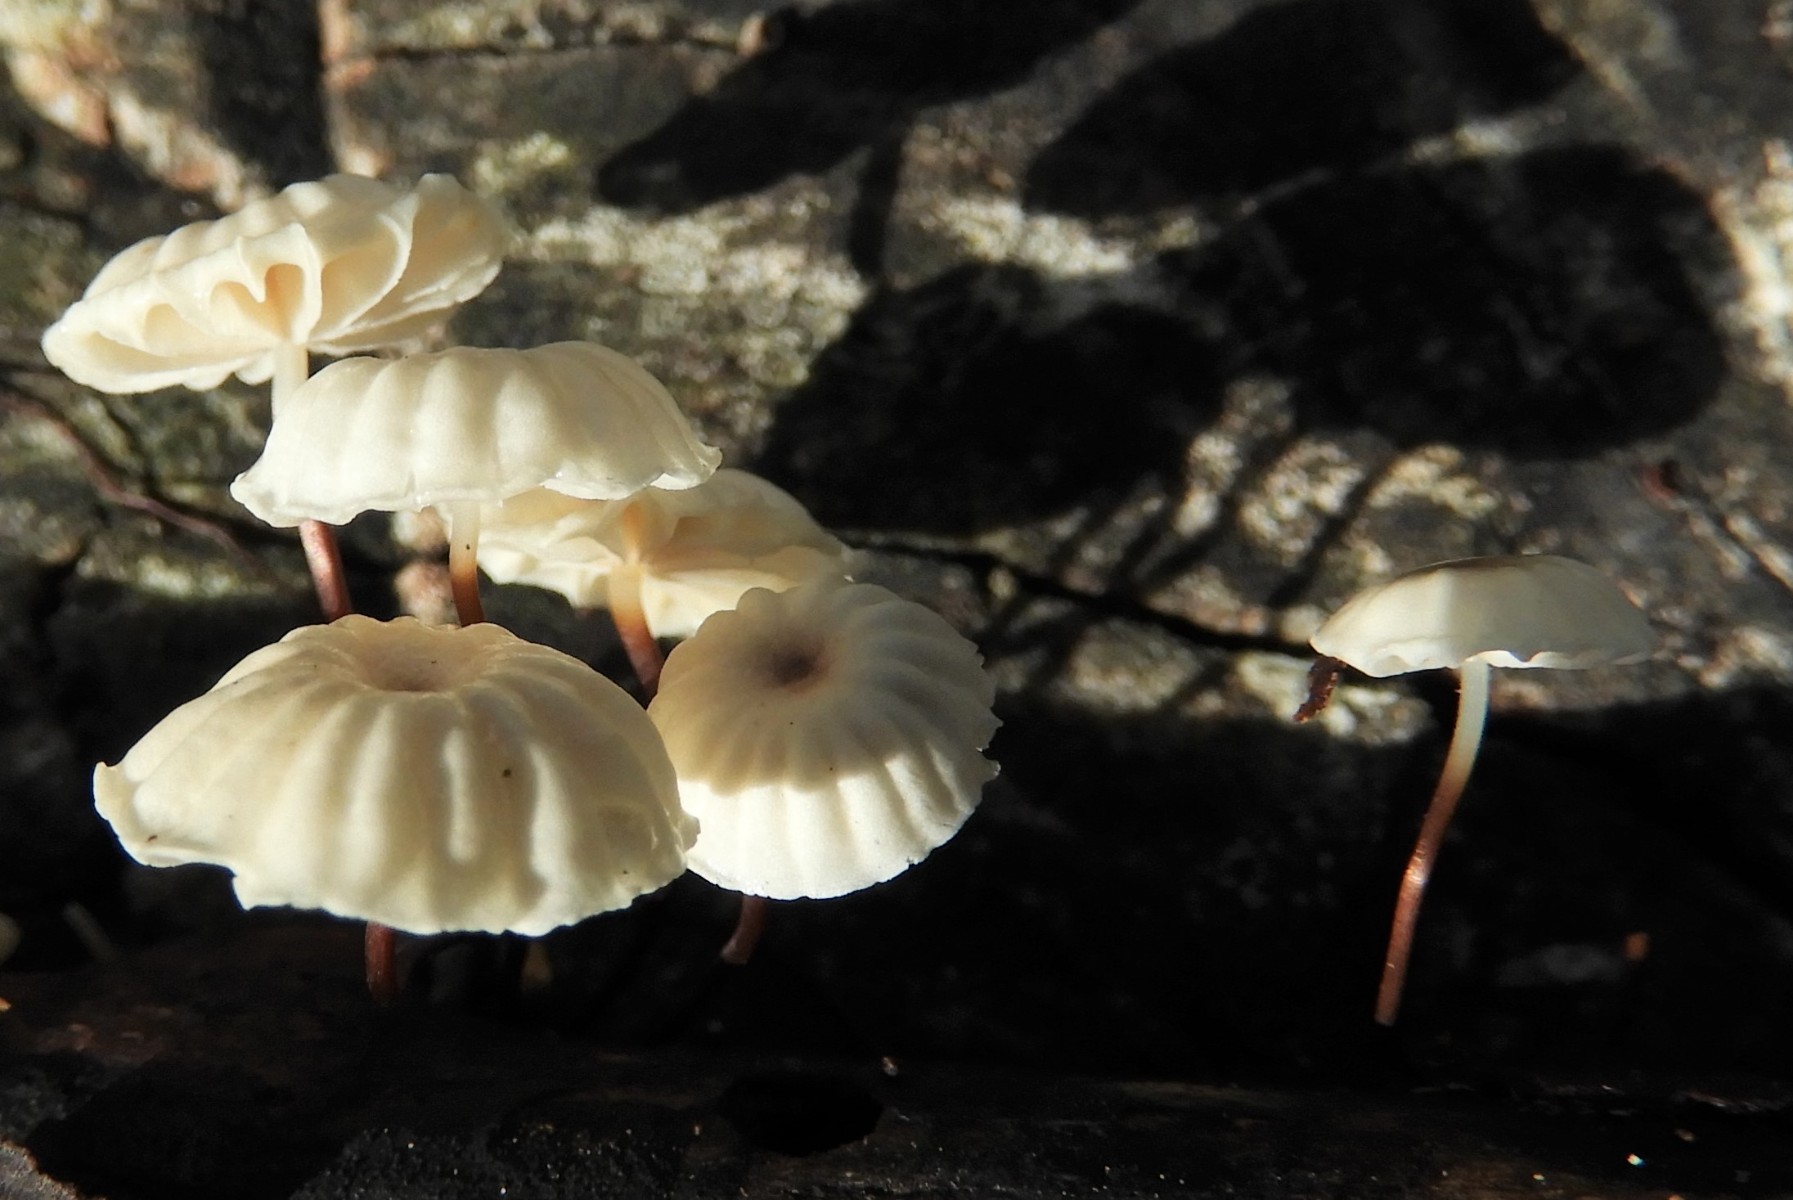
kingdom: Fungi
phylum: Basidiomycota
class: Agaricomycetes
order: Agaricales
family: Marasmiaceae
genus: Marasmius
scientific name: Marasmius rotula
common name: hjul-bruskhat
